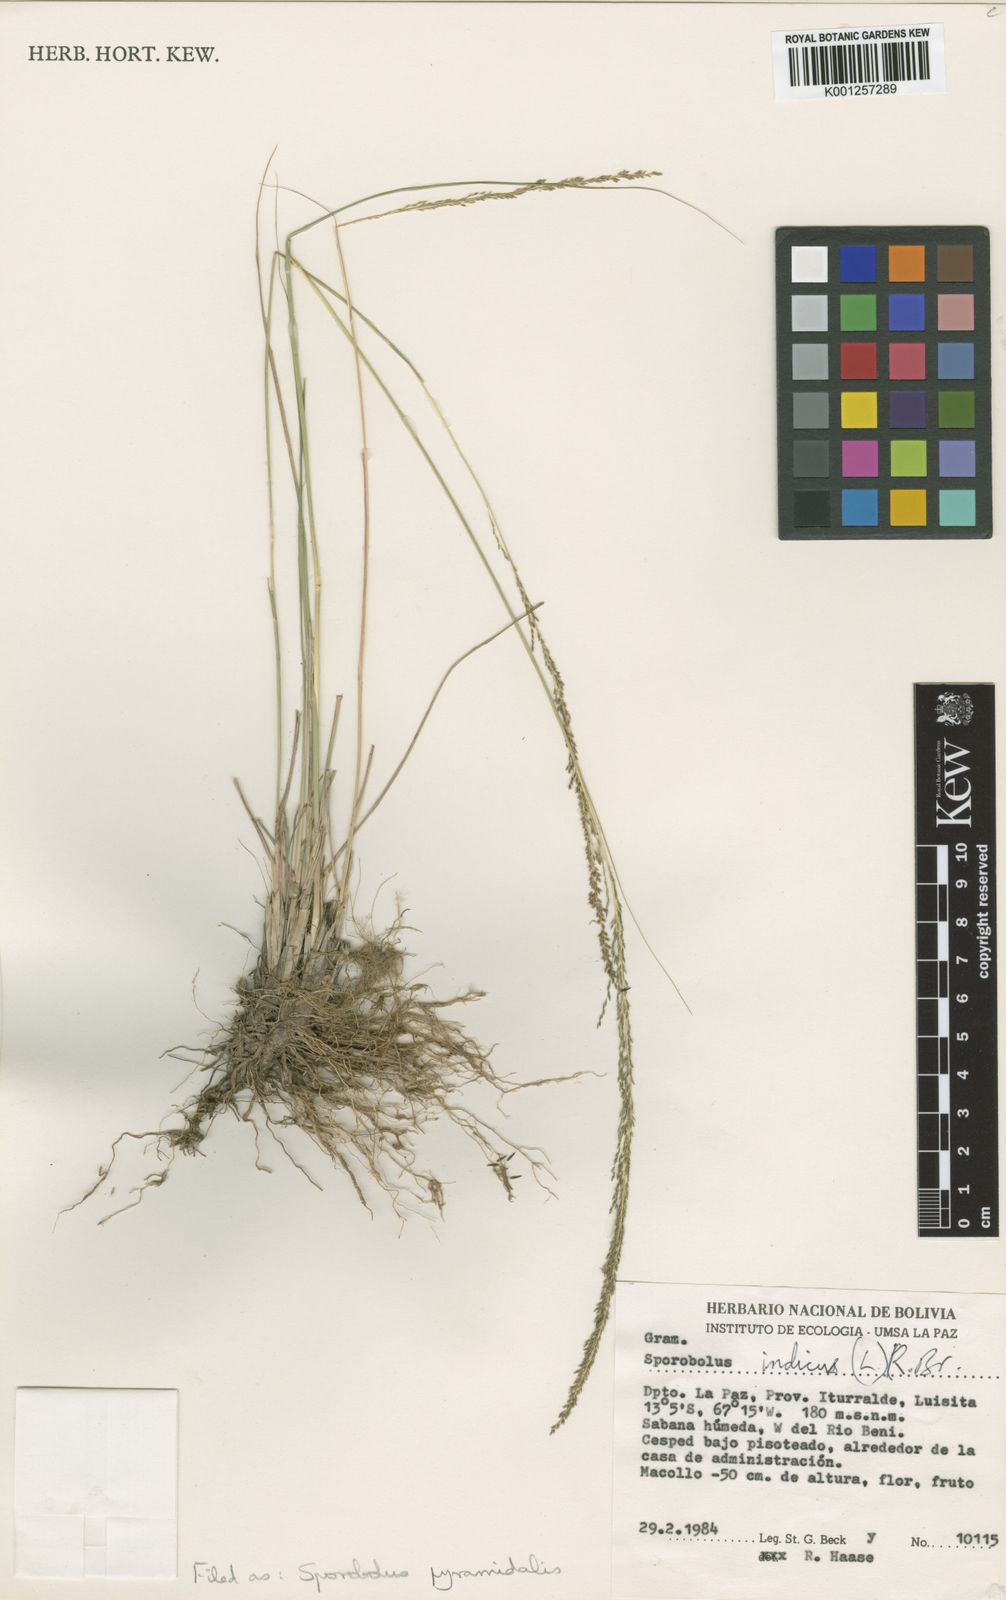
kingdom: Plantae
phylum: Tracheophyta
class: Liliopsida
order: Poales
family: Poaceae
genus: Sporobolus
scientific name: Sporobolus pyramidalis
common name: West indian dropseed
